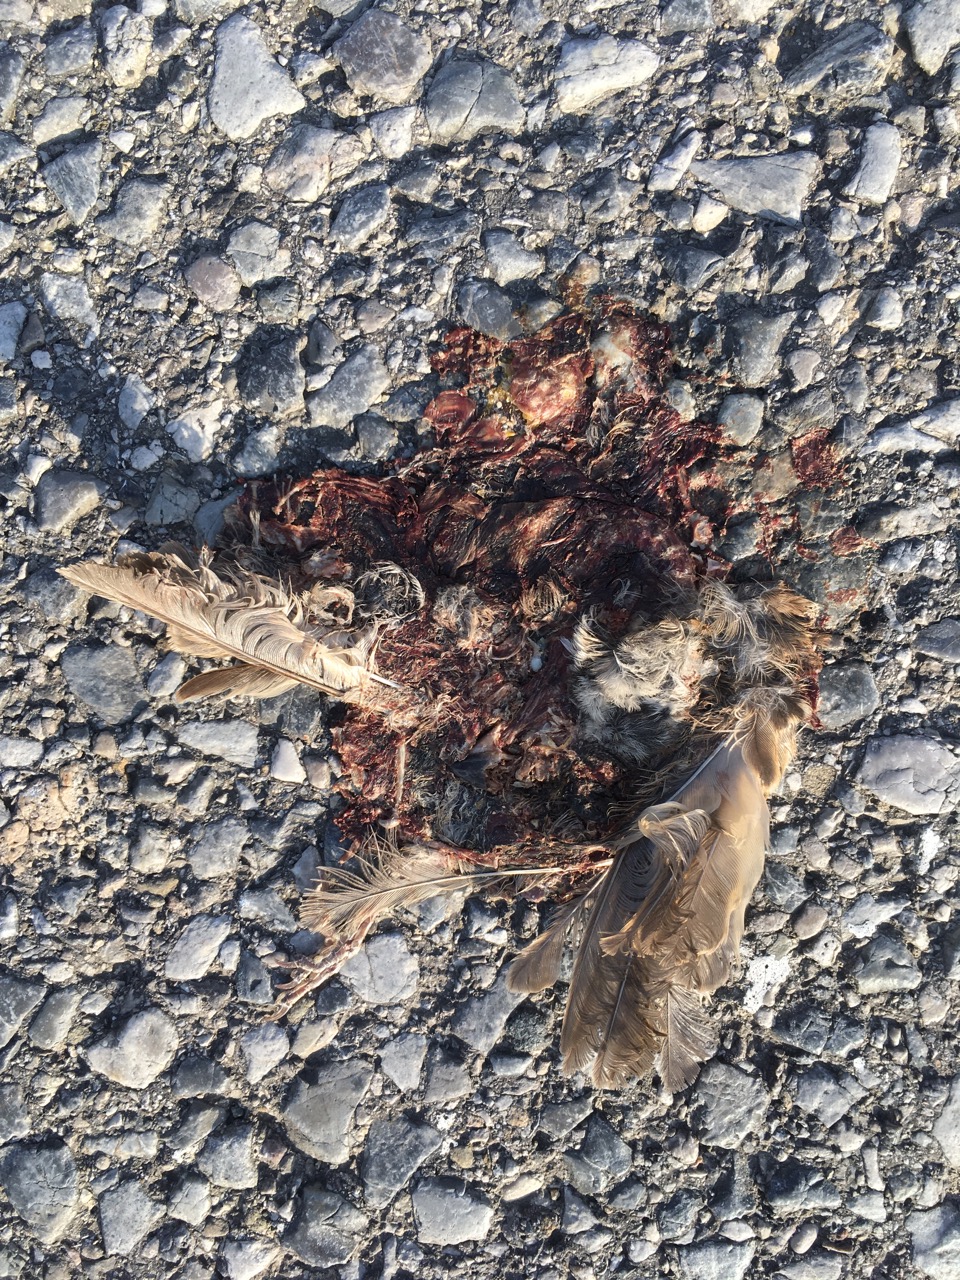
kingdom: Animalia
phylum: Chordata
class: Aves
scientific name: Aves
